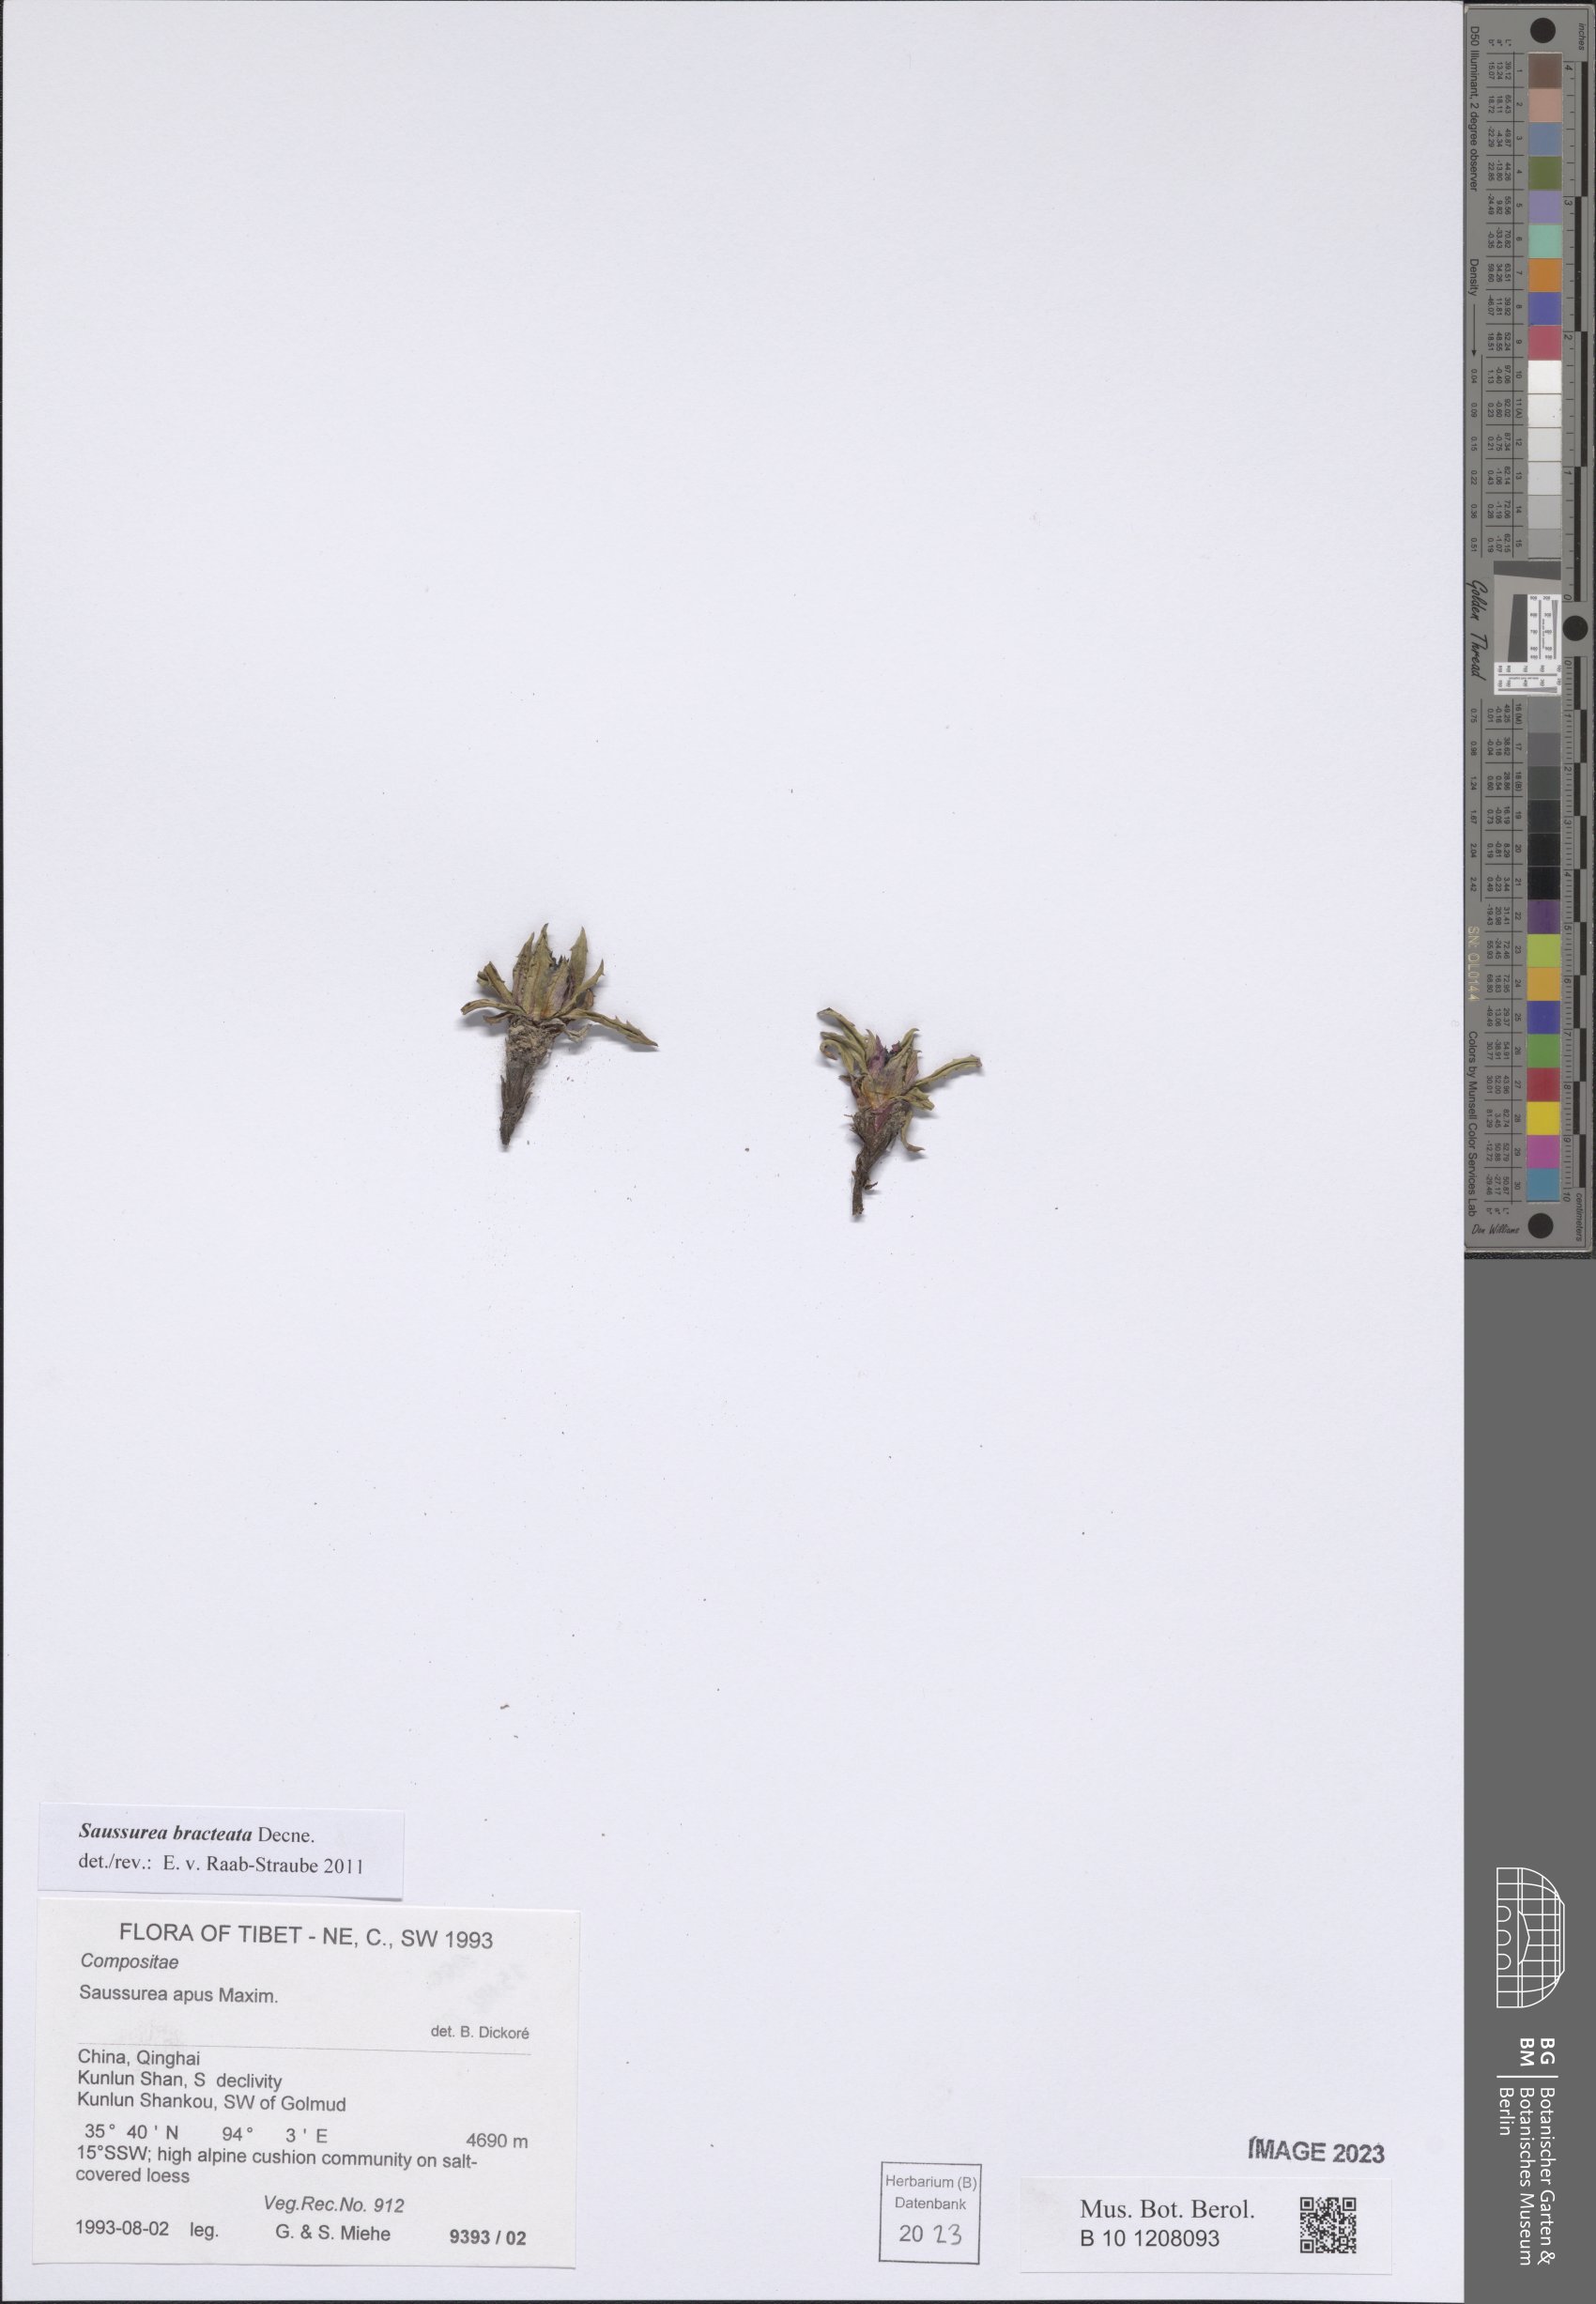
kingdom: Plantae
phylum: Tracheophyta
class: Magnoliopsida
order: Asterales
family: Asteraceae
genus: Saussurea
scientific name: Saussurea bracteata
